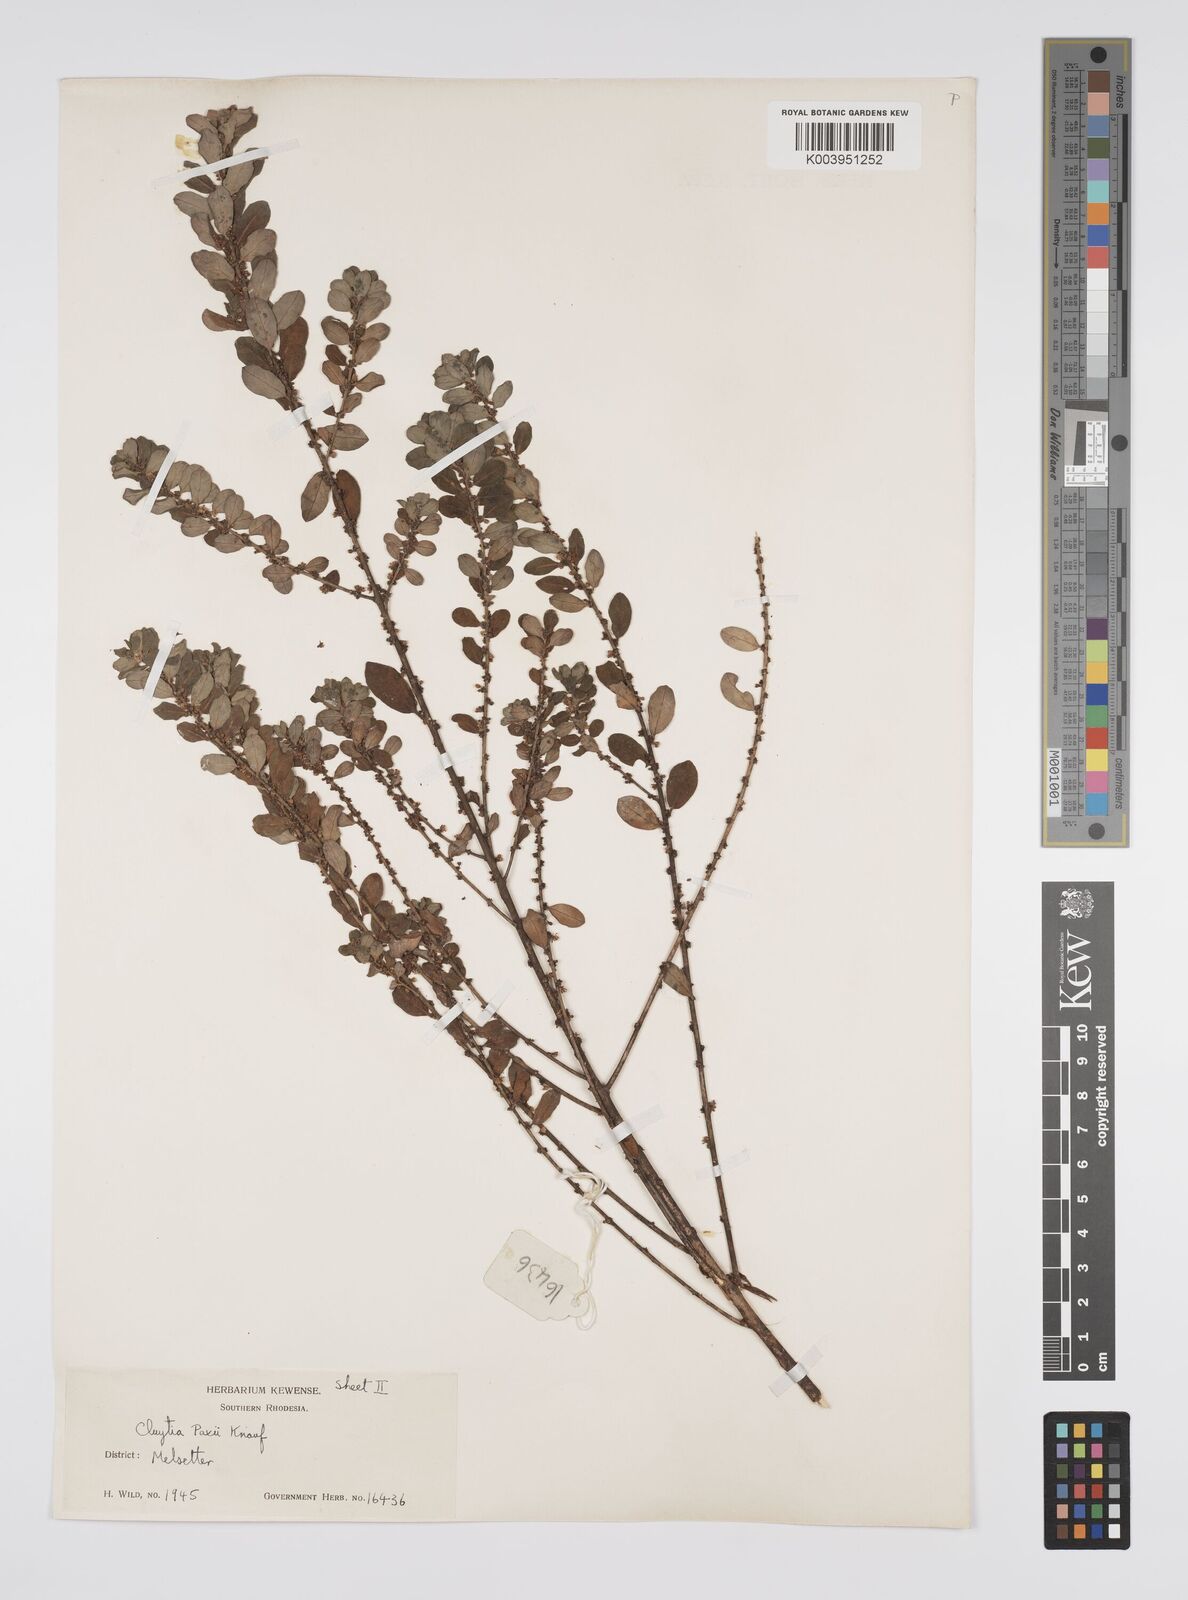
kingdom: Plantae
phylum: Tracheophyta
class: Magnoliopsida
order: Malpighiales
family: Peraceae
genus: Clutia
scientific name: Clutia paxii
